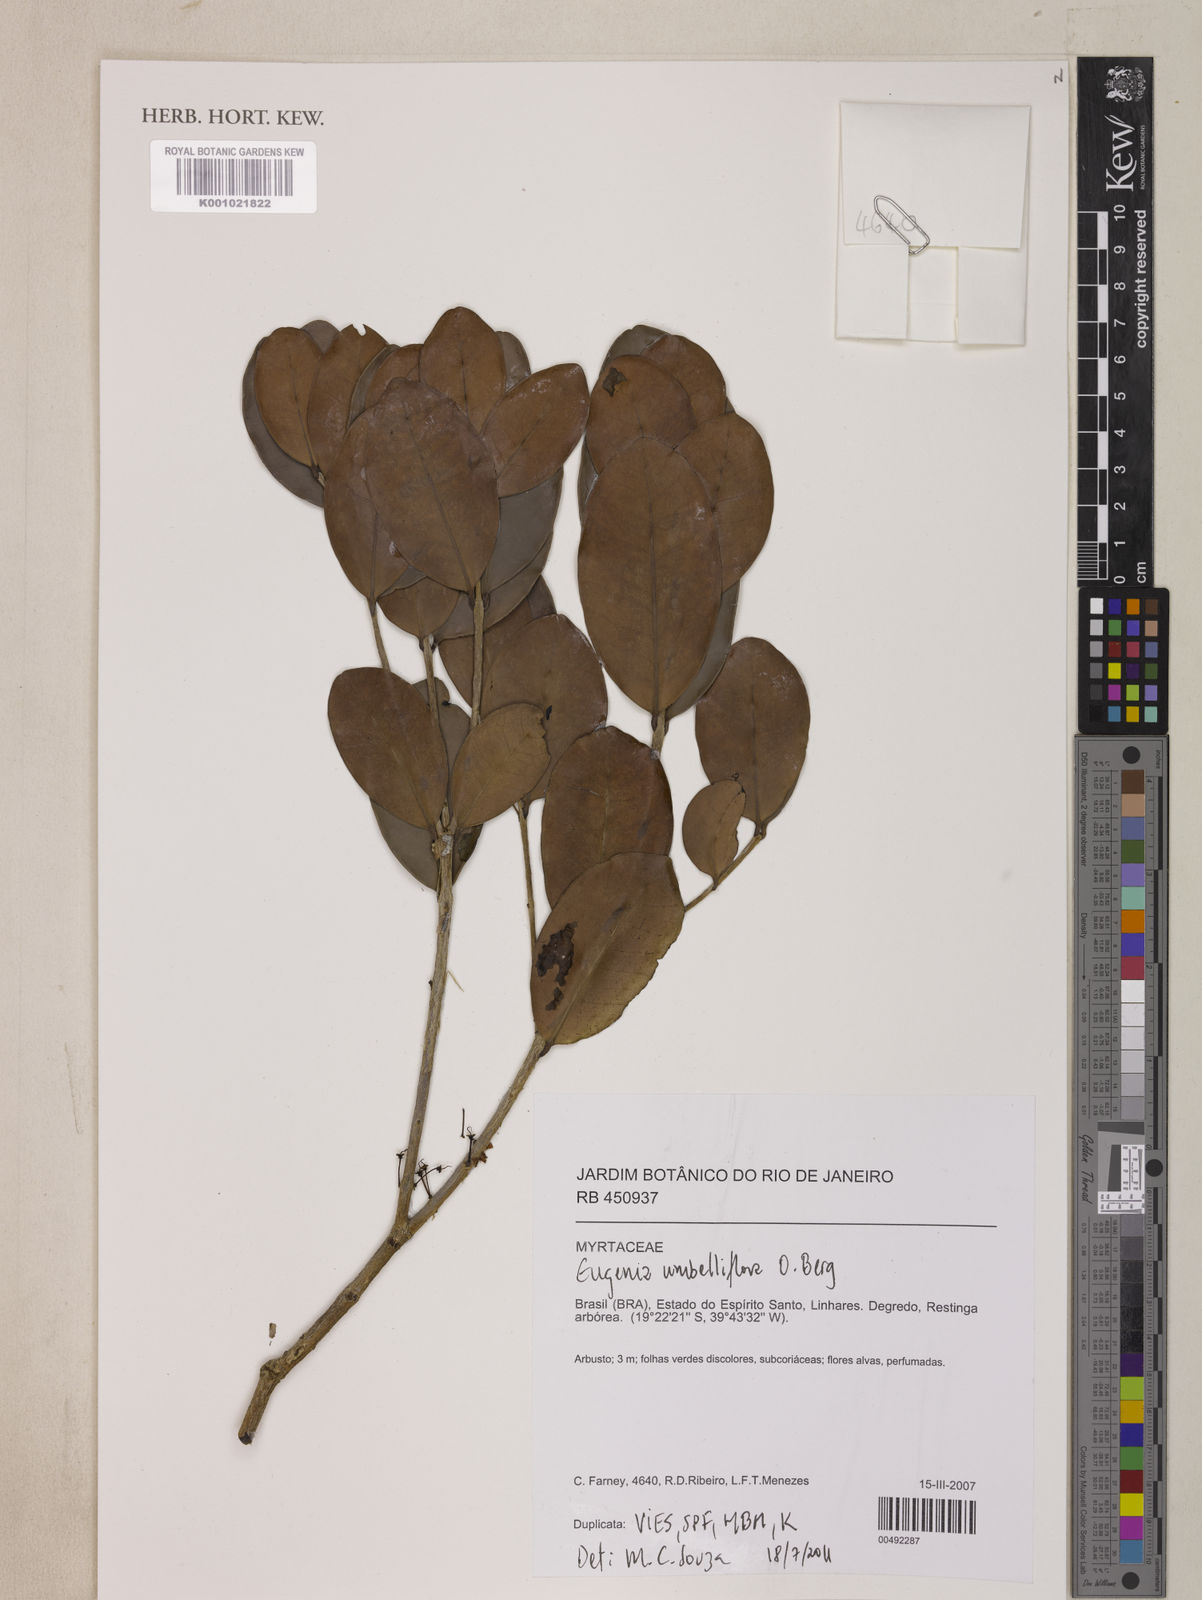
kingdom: Plantae
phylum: Tracheophyta
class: Magnoliopsida
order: Myrtales
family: Myrtaceae
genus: Eugenia
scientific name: Eugenia astringens
